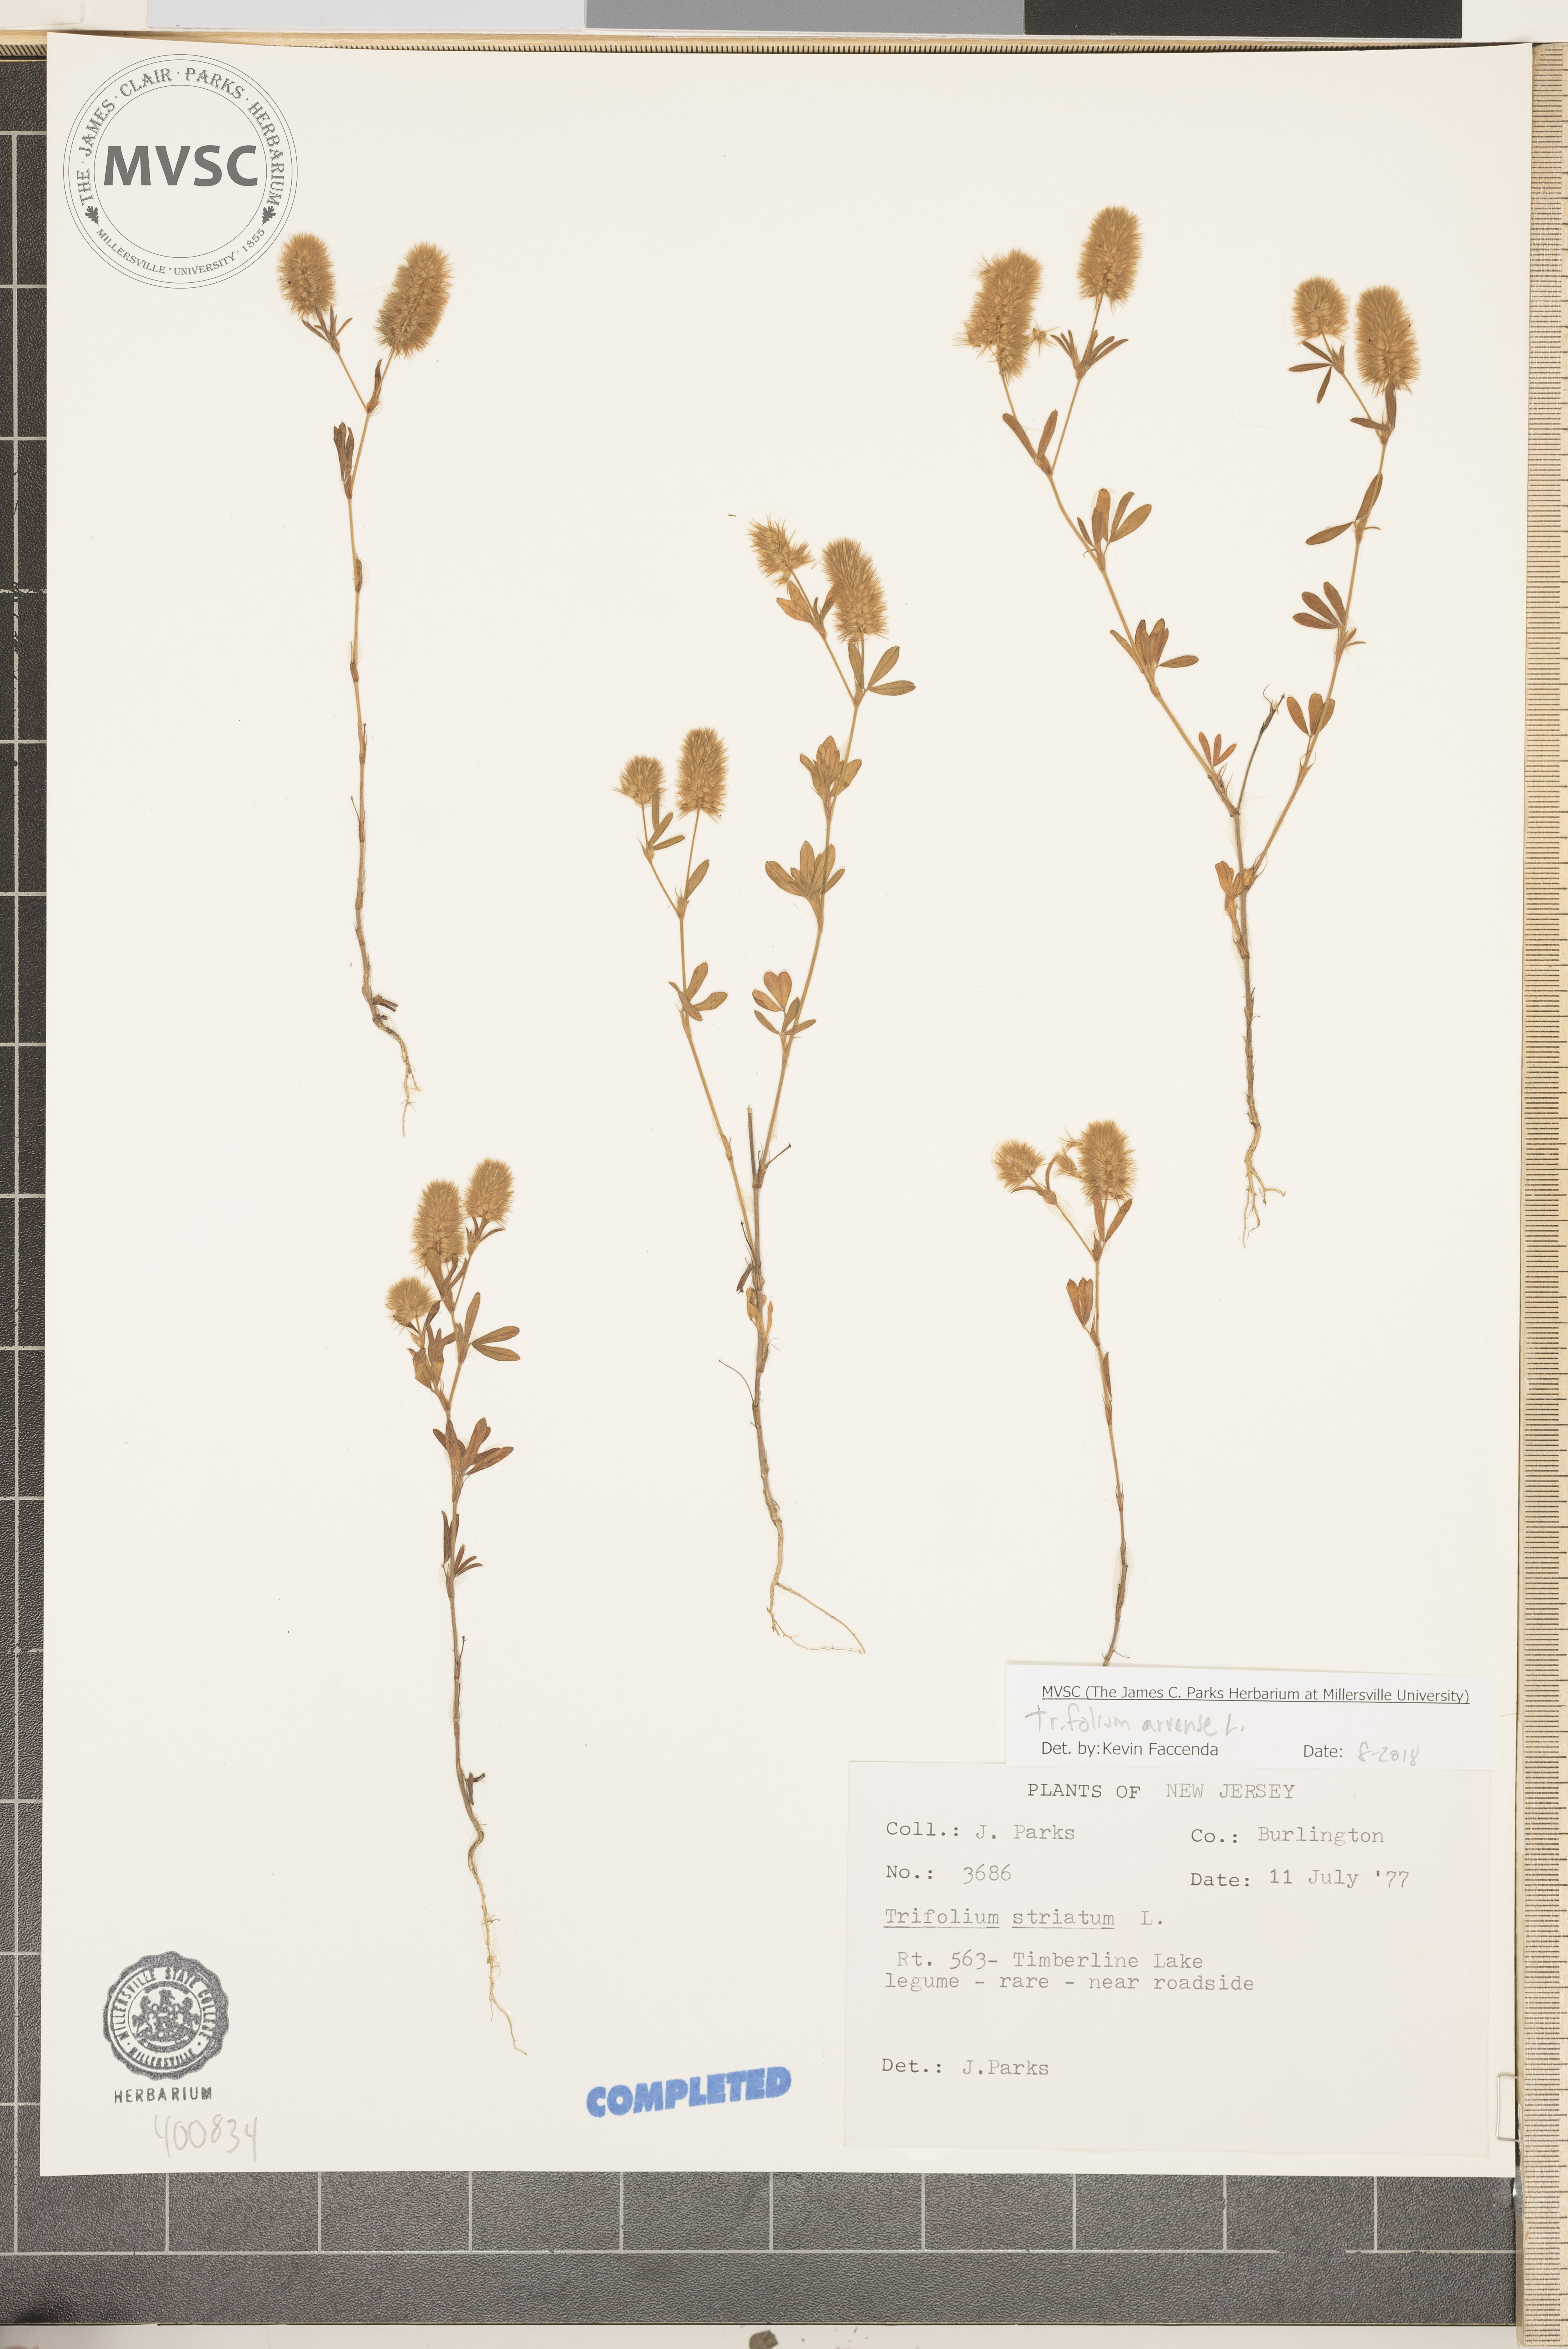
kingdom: Plantae
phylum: Tracheophyta
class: Magnoliopsida
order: Fabales
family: Fabaceae
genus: Trifolium
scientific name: Trifolium arvense
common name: clover
